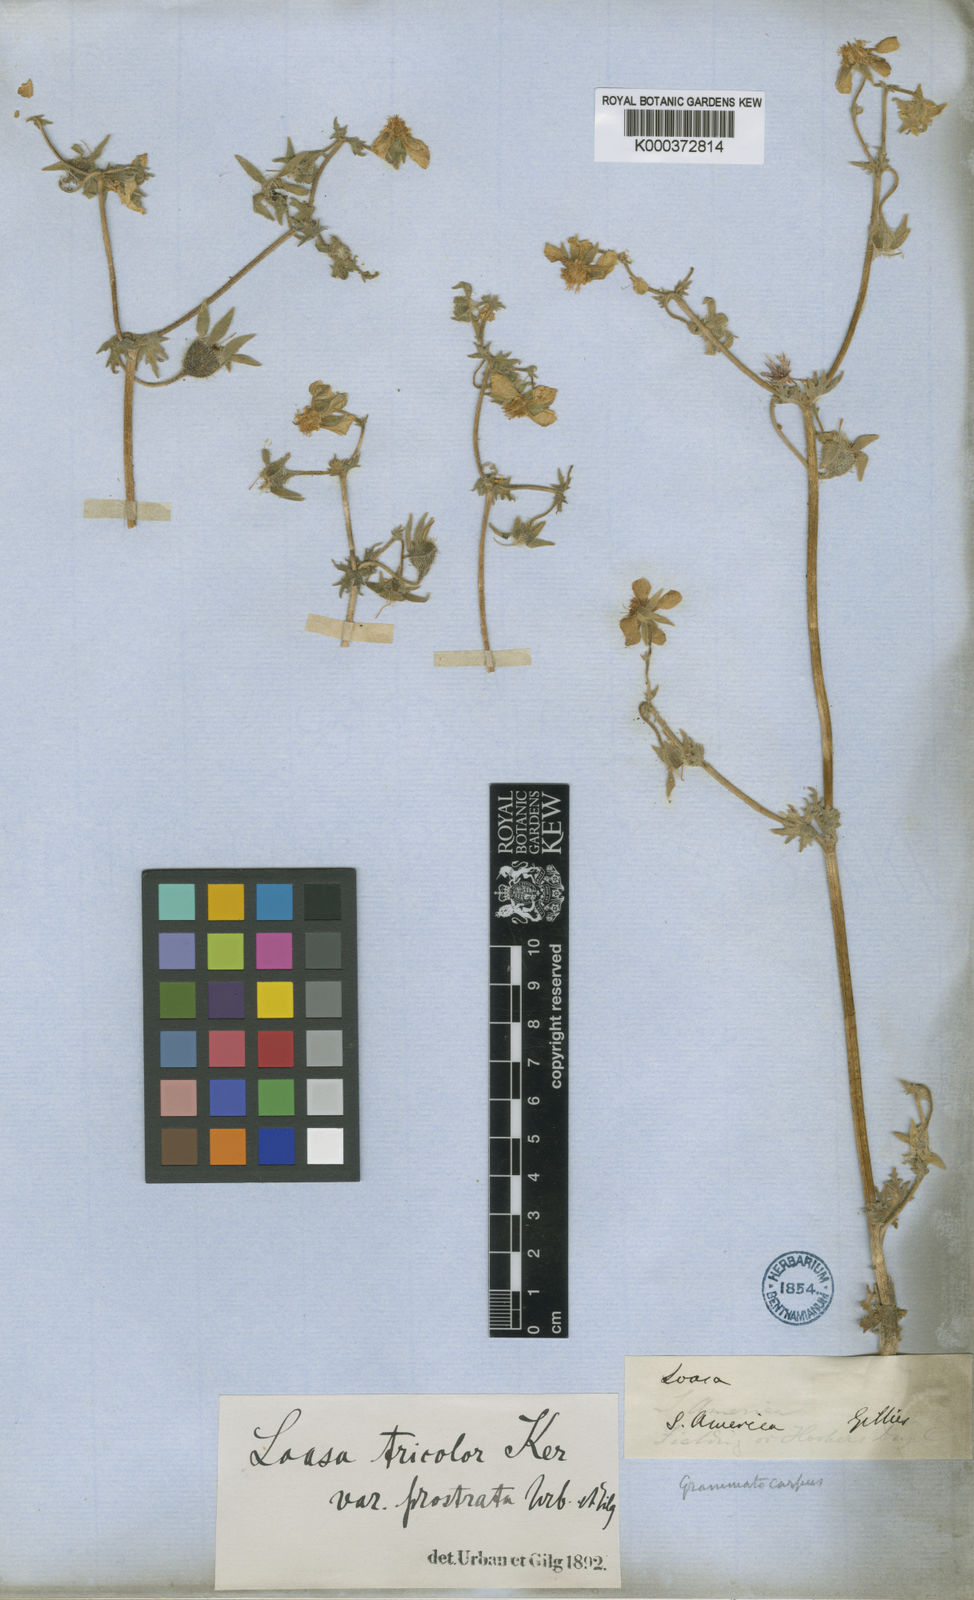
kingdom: Plantae
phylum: Tracheophyta
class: Magnoliopsida
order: Cornales
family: Loasaceae
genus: Loasa
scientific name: Loasa prostrata
